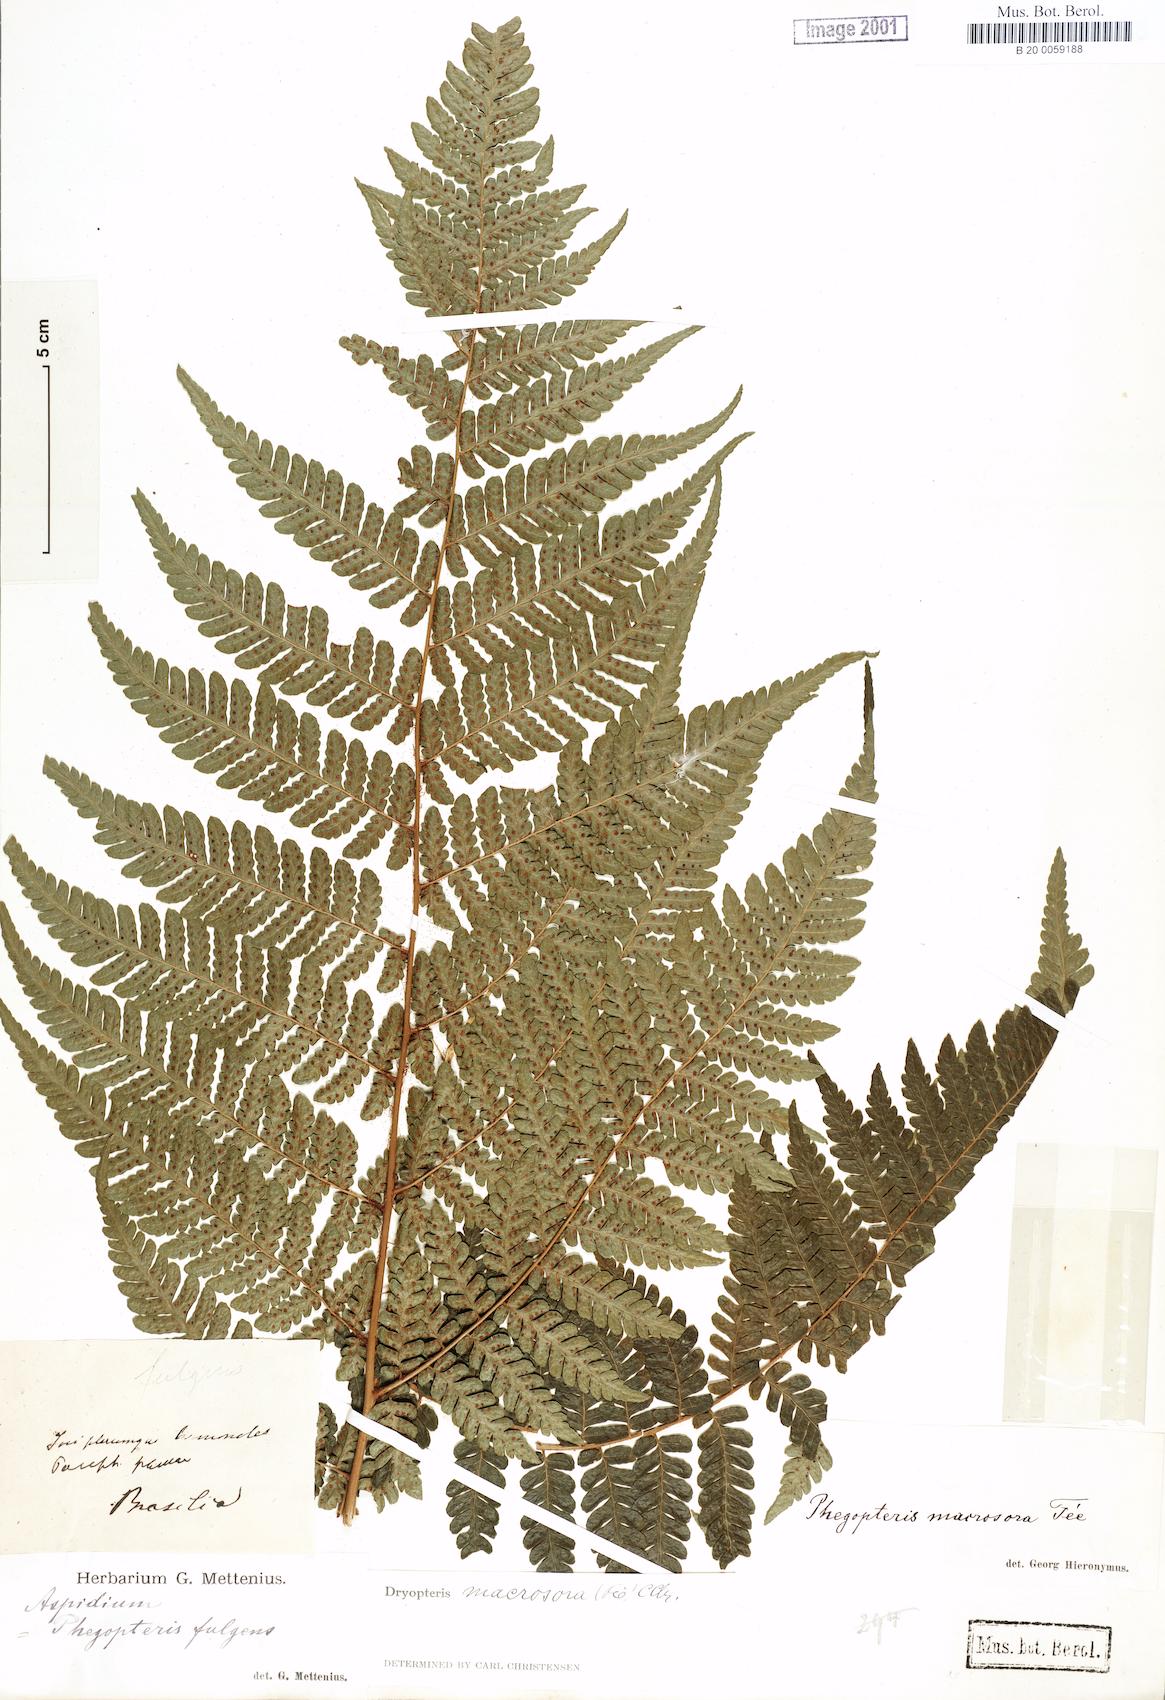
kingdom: Plantae
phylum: Tracheophyta
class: Polypodiopsida
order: Polypodiales
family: Dryopteridaceae
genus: Megalastrum
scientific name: Megalastrum inaequale
